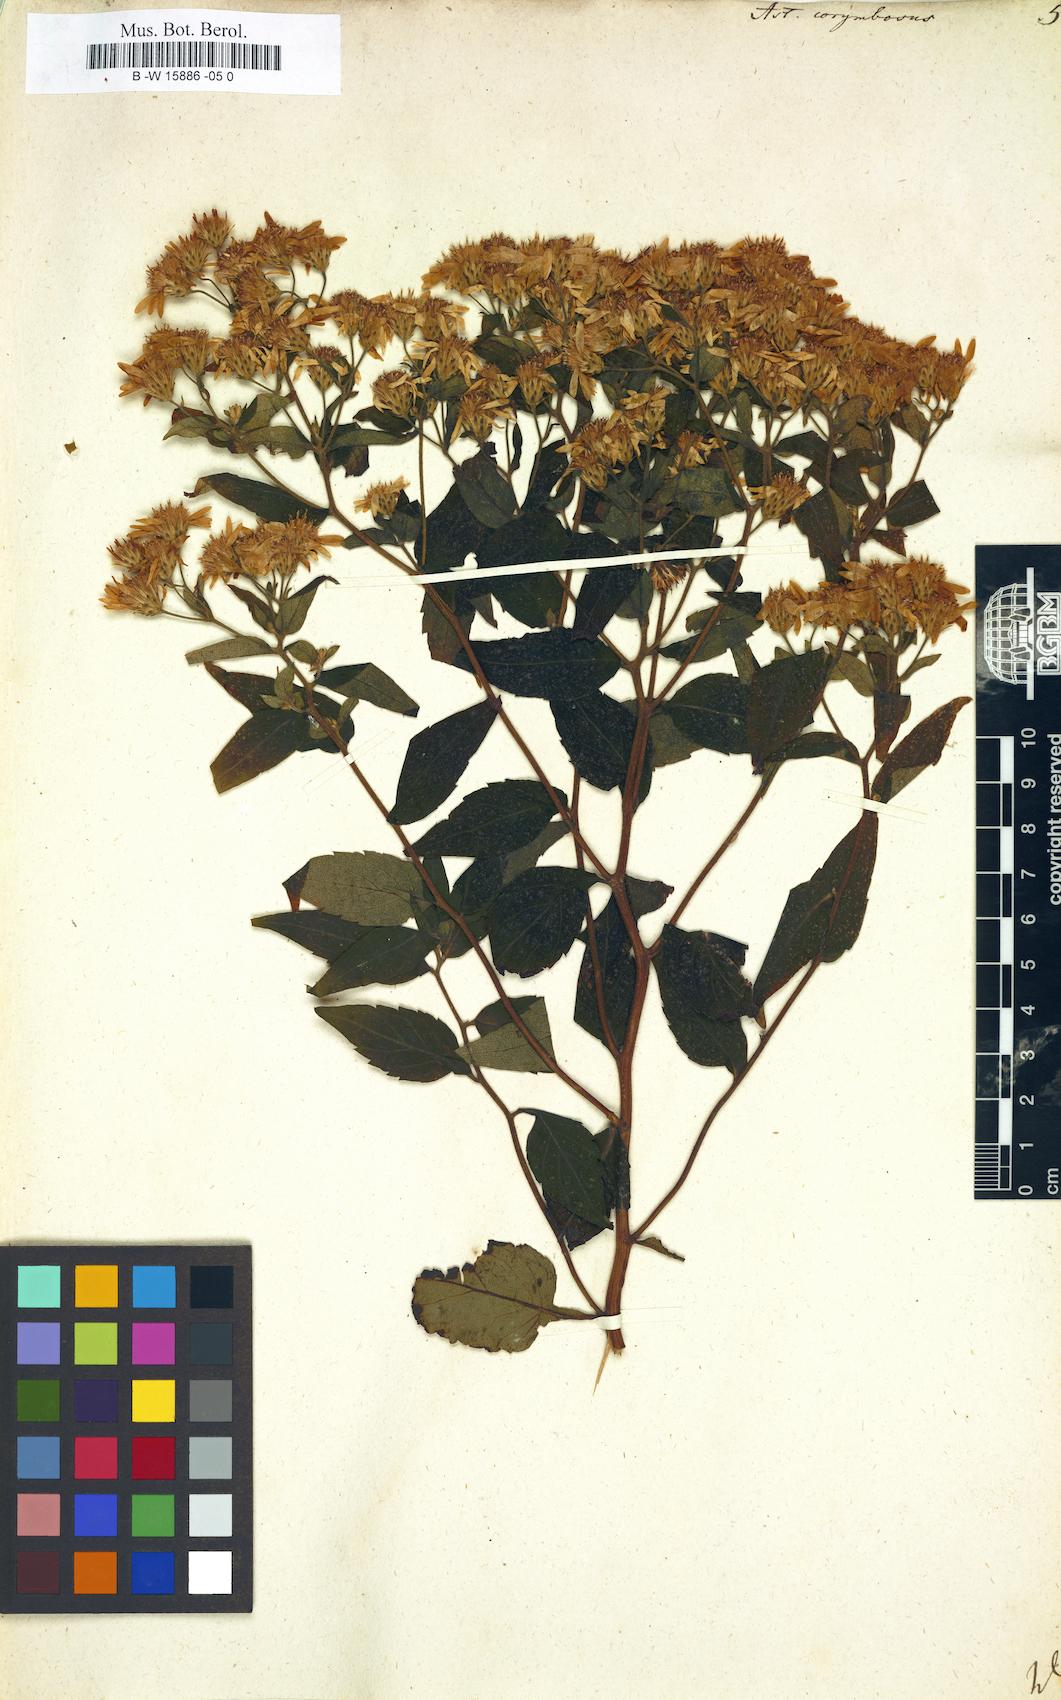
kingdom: Plantae
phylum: Tracheophyta
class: Magnoliopsida
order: Asterales
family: Asteraceae
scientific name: Asteraceae
